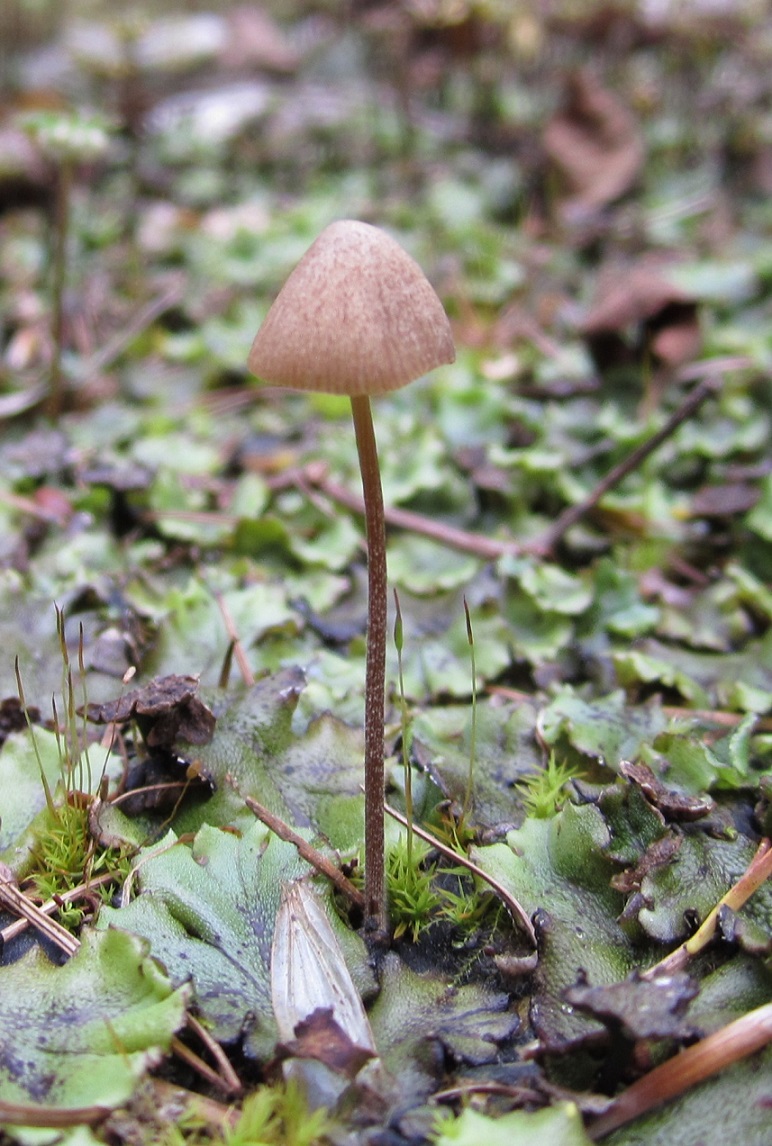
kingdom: Fungi
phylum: Basidiomycota
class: Agaricomycetes
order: Agaricales
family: Bolbitiaceae
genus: Conocybe
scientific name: Conocybe bisporigera
